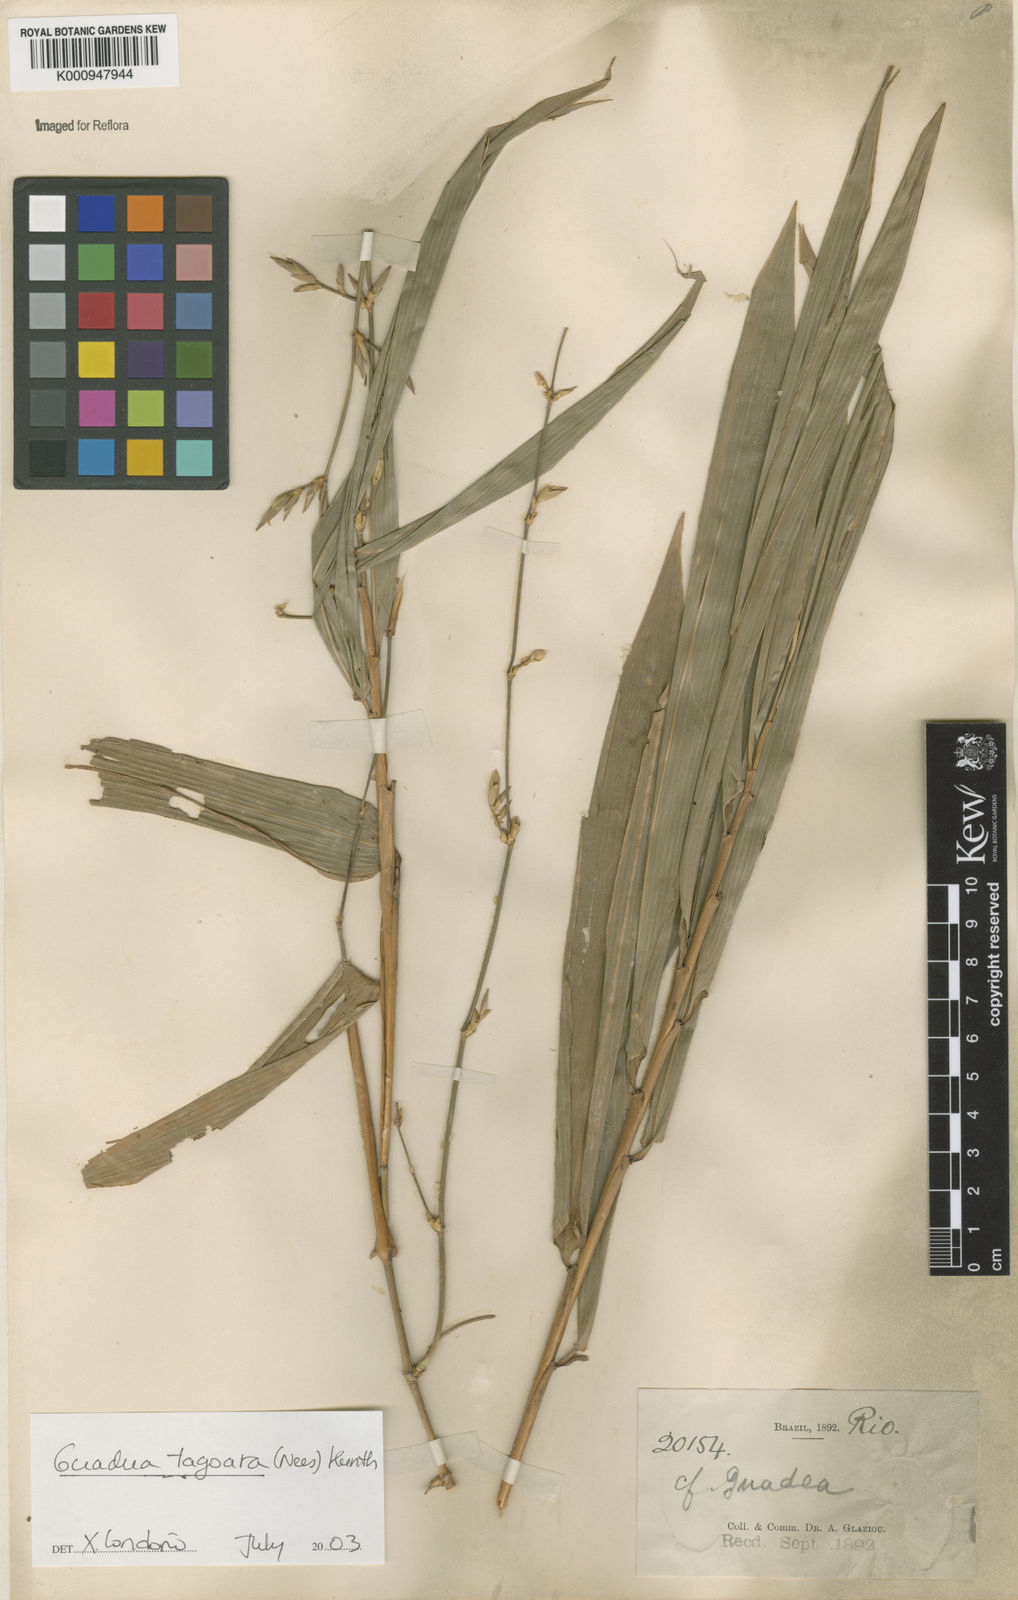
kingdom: Plantae
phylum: Tracheophyta
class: Liliopsida
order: Poales
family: Poaceae
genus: Guadua
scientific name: Guadua tagoara
